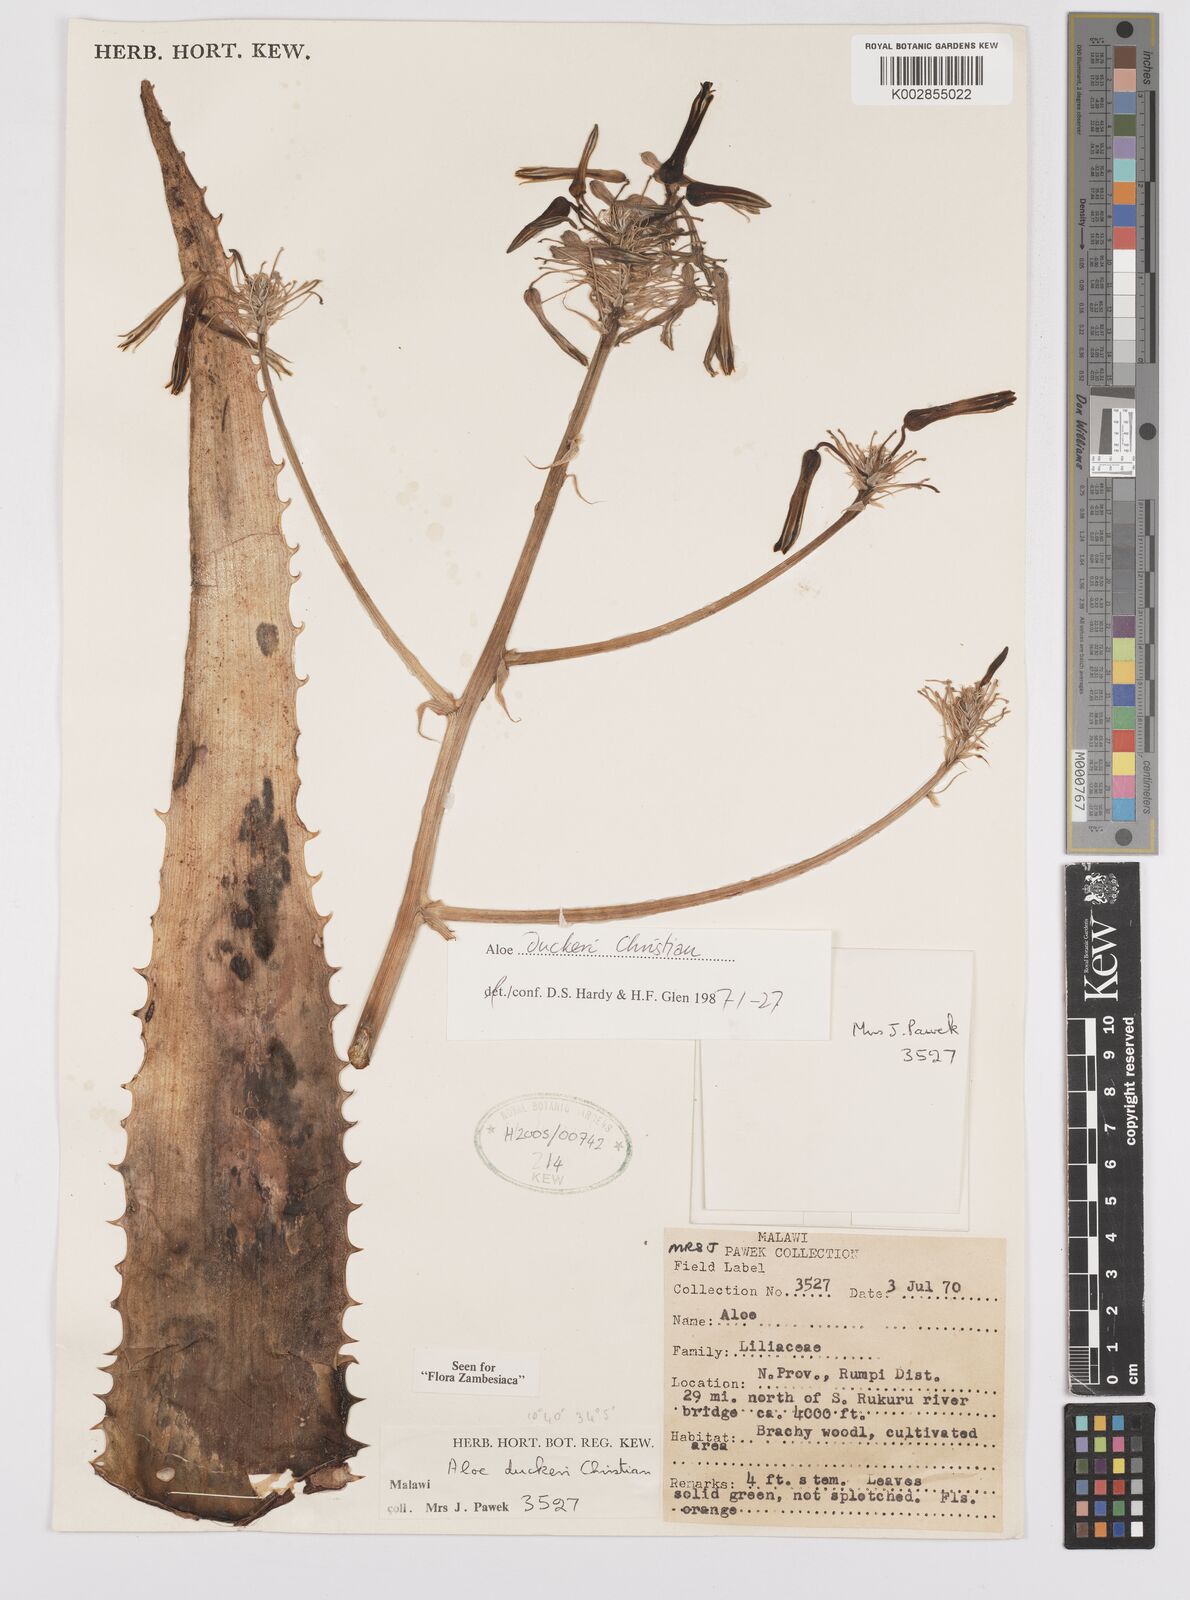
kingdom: Plantae
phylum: Tracheophyta
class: Liliopsida
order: Asparagales
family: Asphodelaceae
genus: Aloe
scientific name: Aloe duckeri
